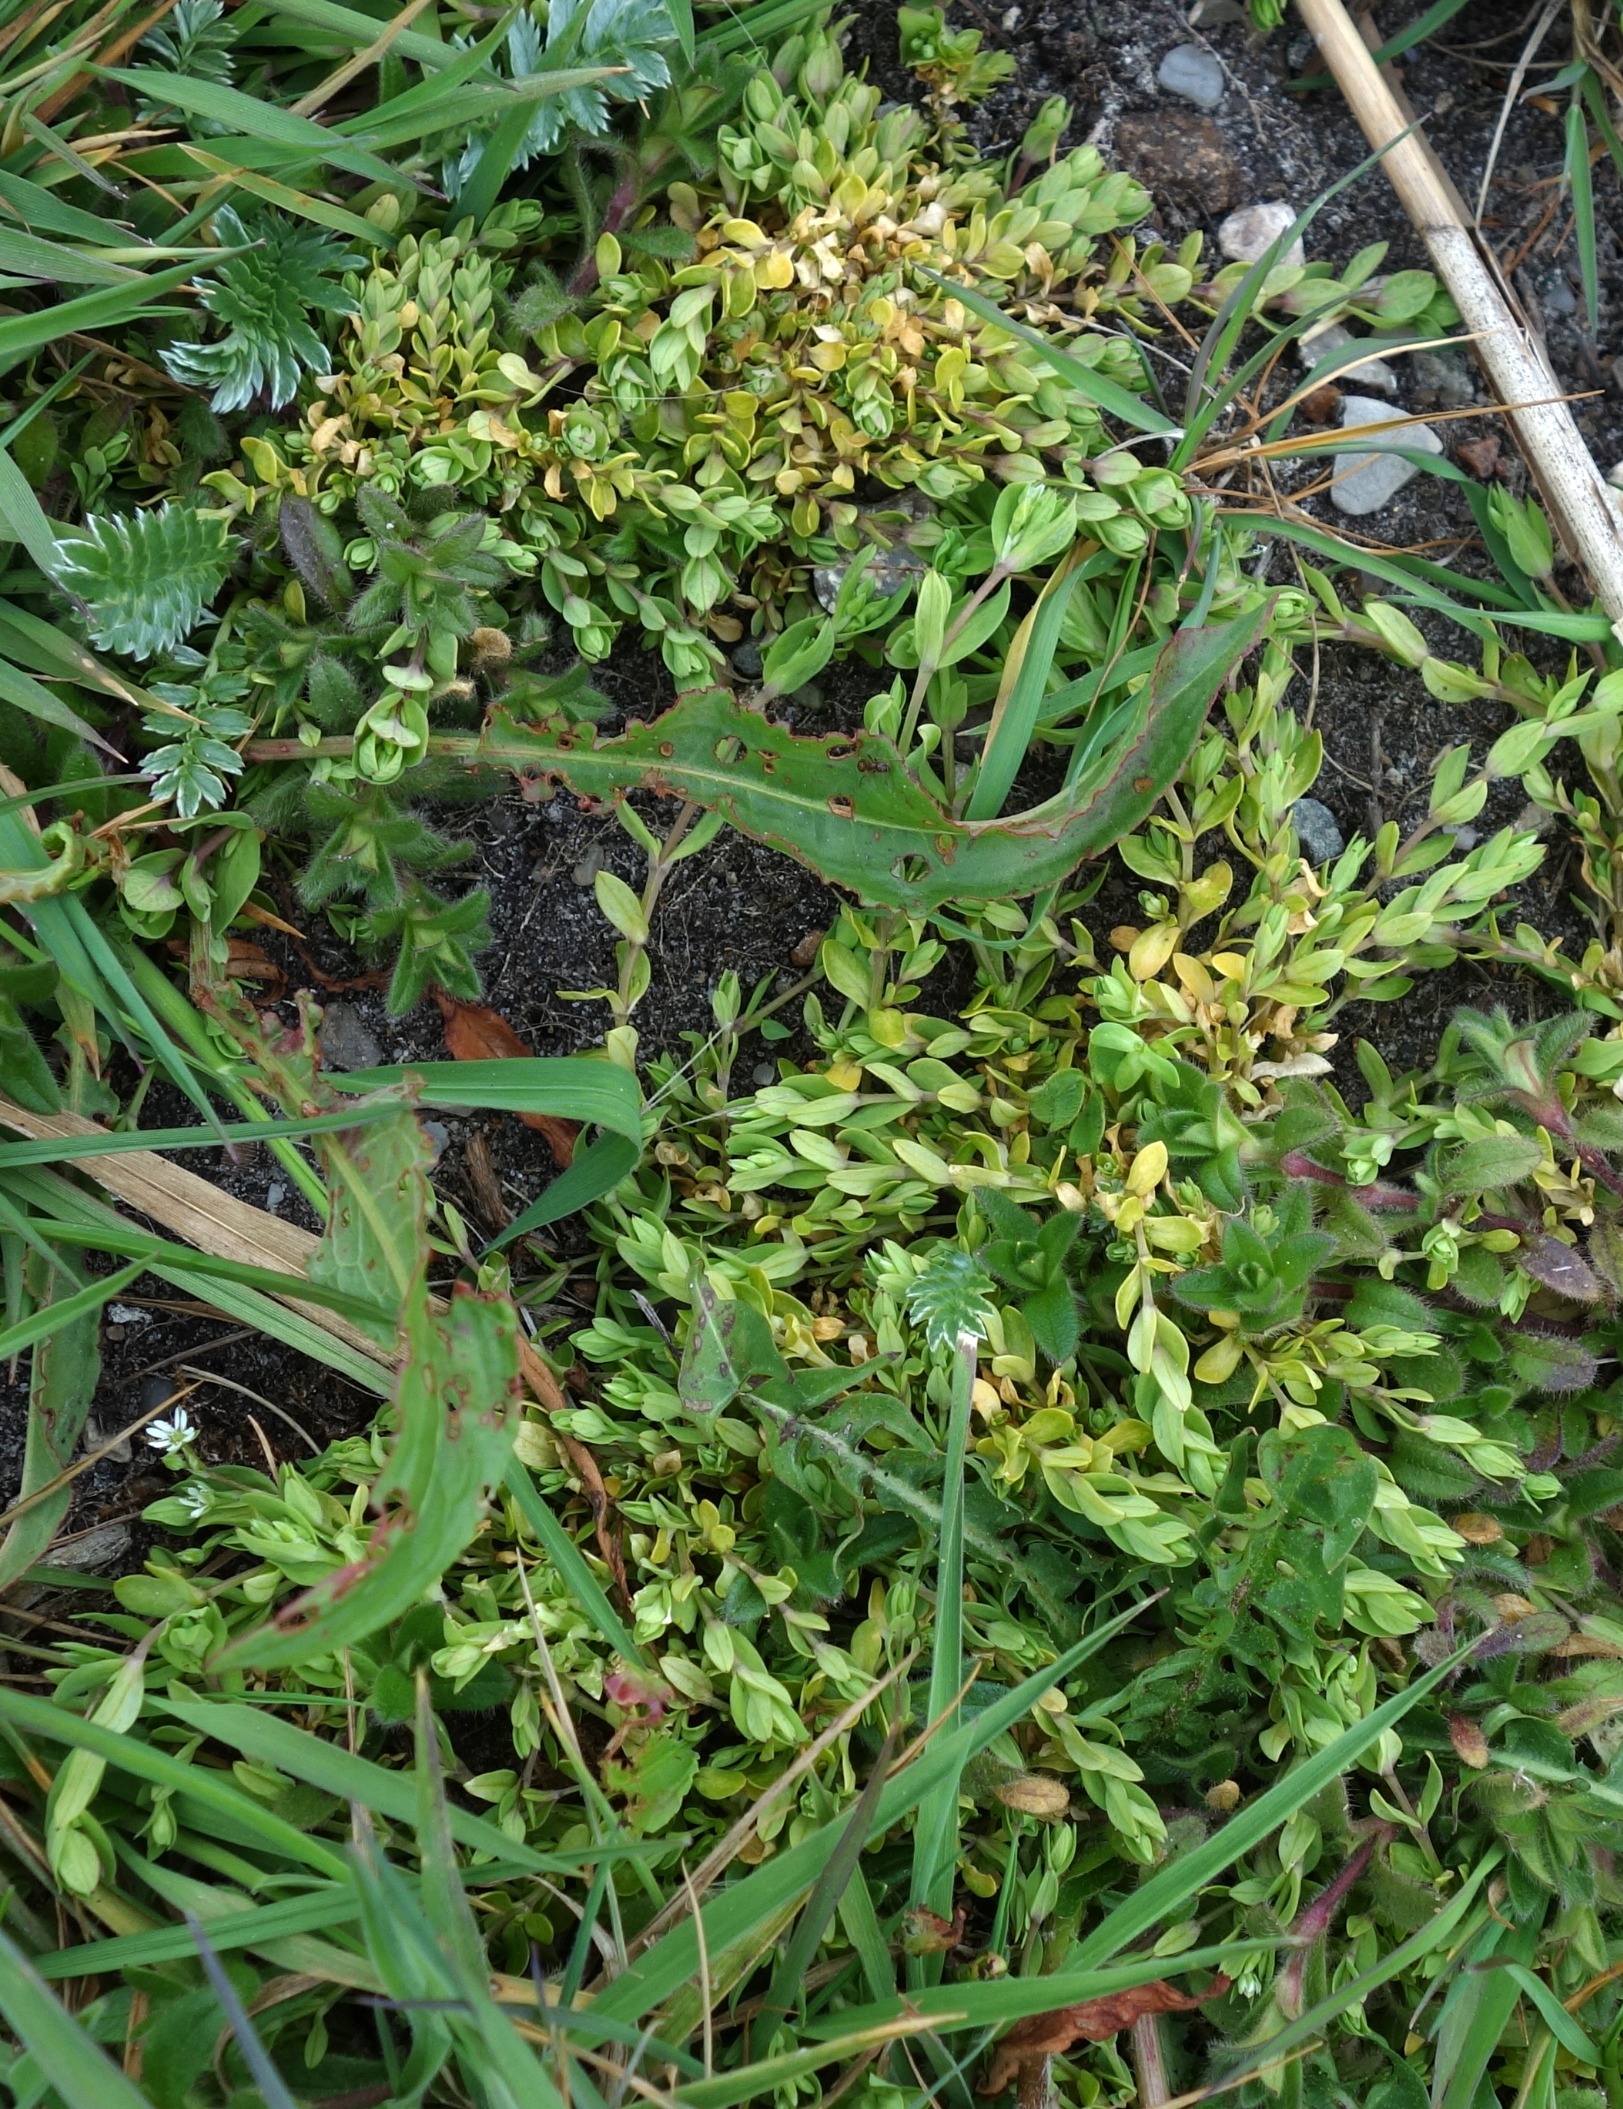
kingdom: Plantae
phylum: Tracheophyta
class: Magnoliopsida
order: Caryophyllales
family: Caryophyllaceae
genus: Stellaria
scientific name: Stellaria alsine
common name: Sump-fladstjerne
